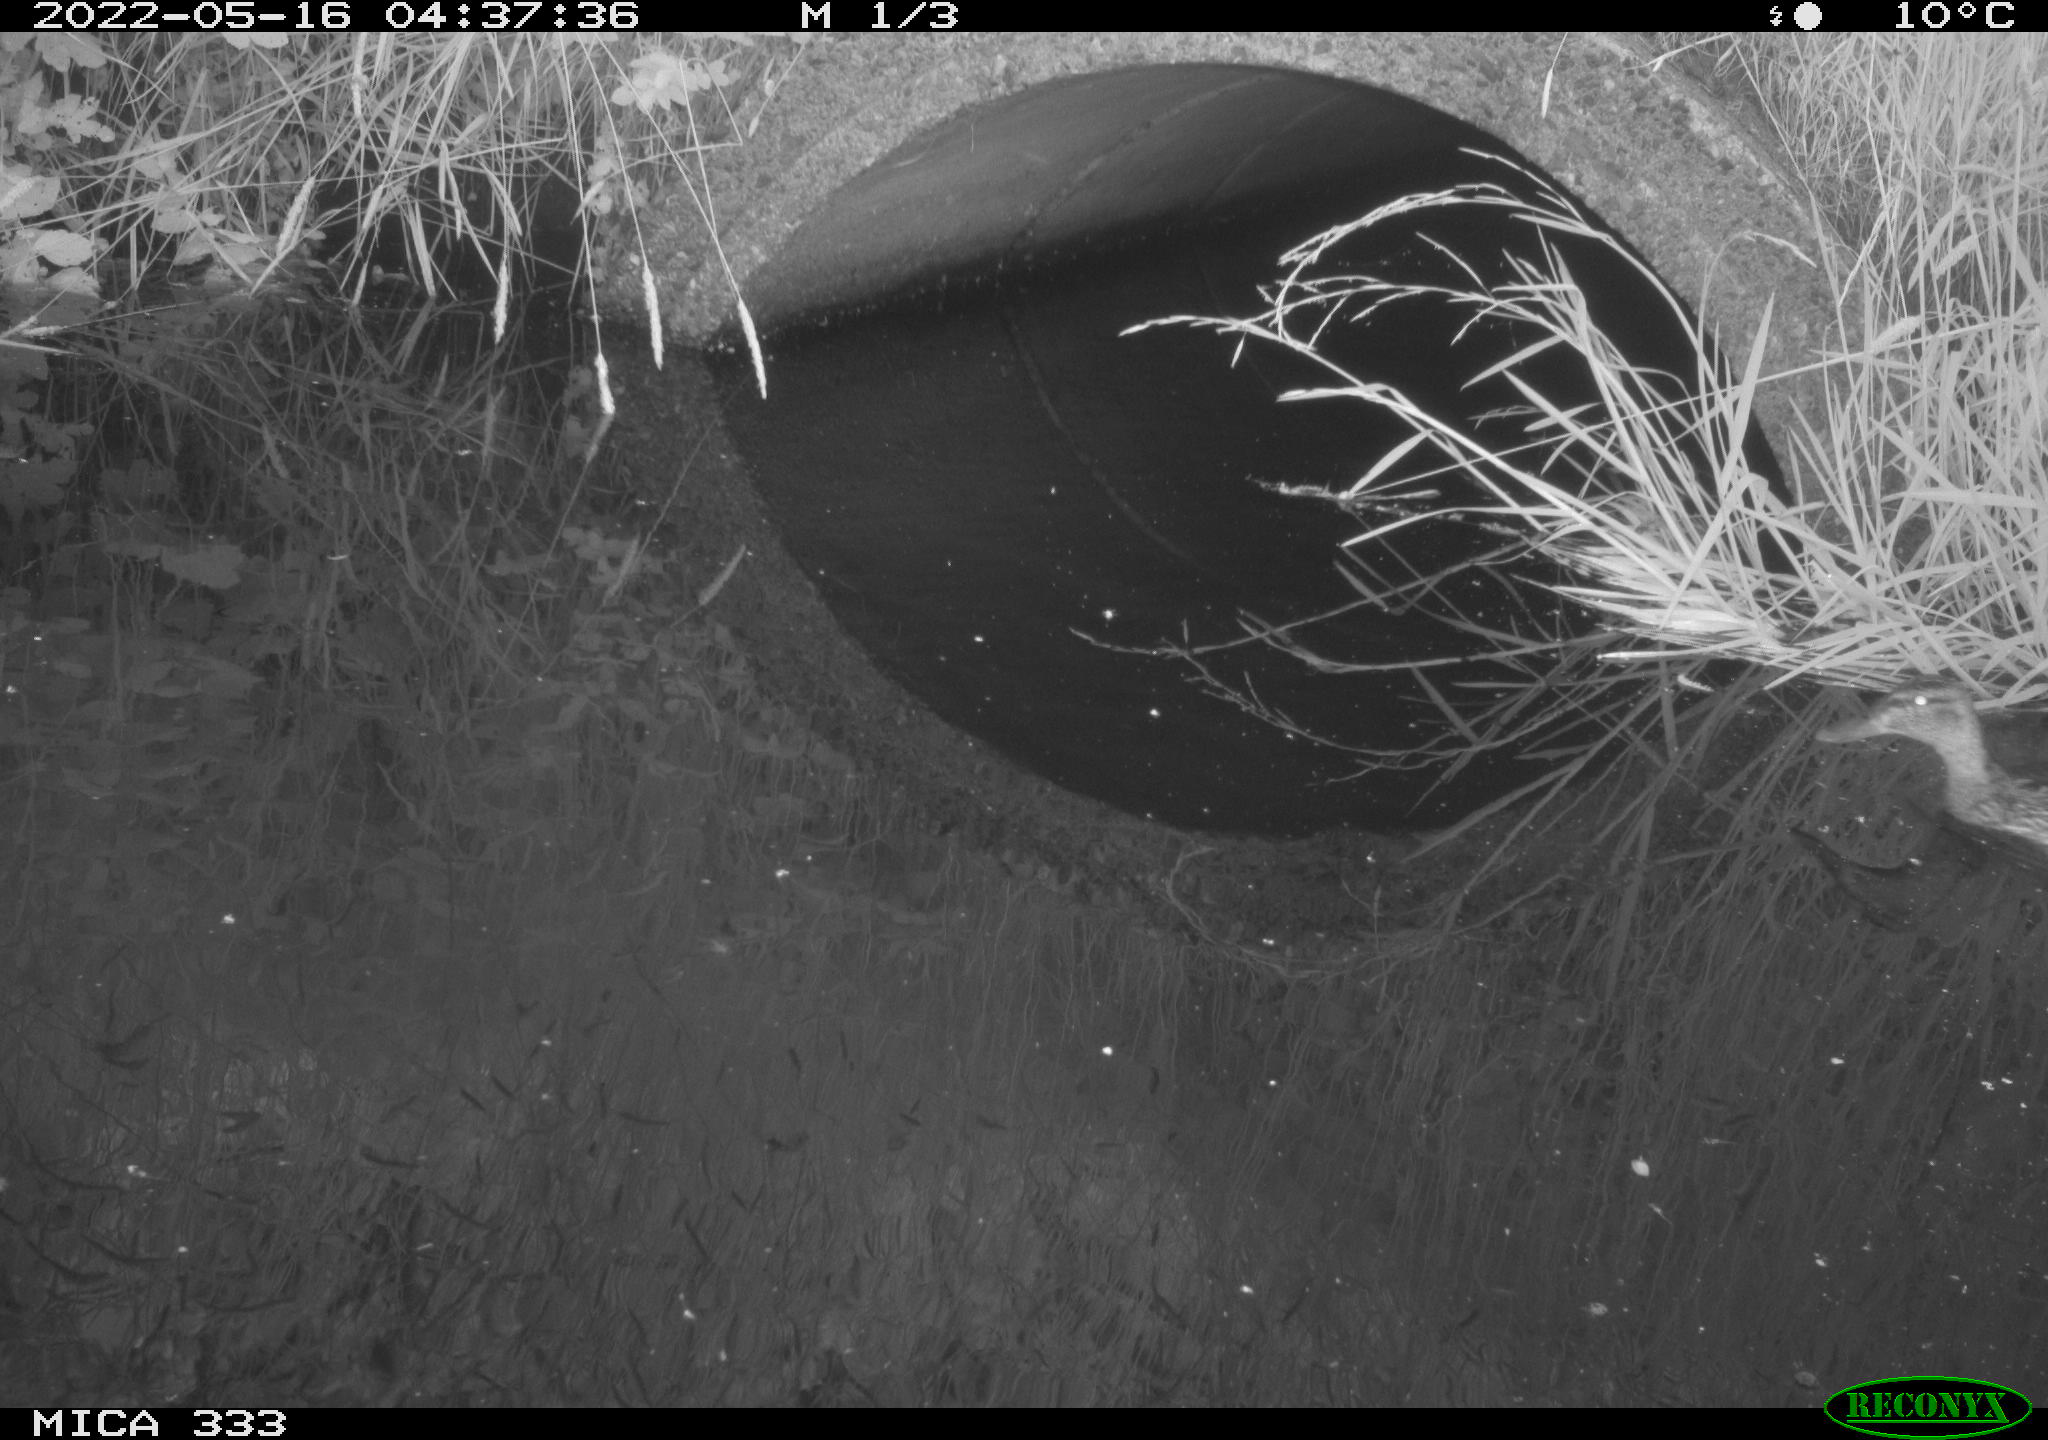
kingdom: Animalia
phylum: Chordata
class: Aves
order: Anseriformes
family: Anatidae
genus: Anas
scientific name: Anas platyrhynchos
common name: Mallard
